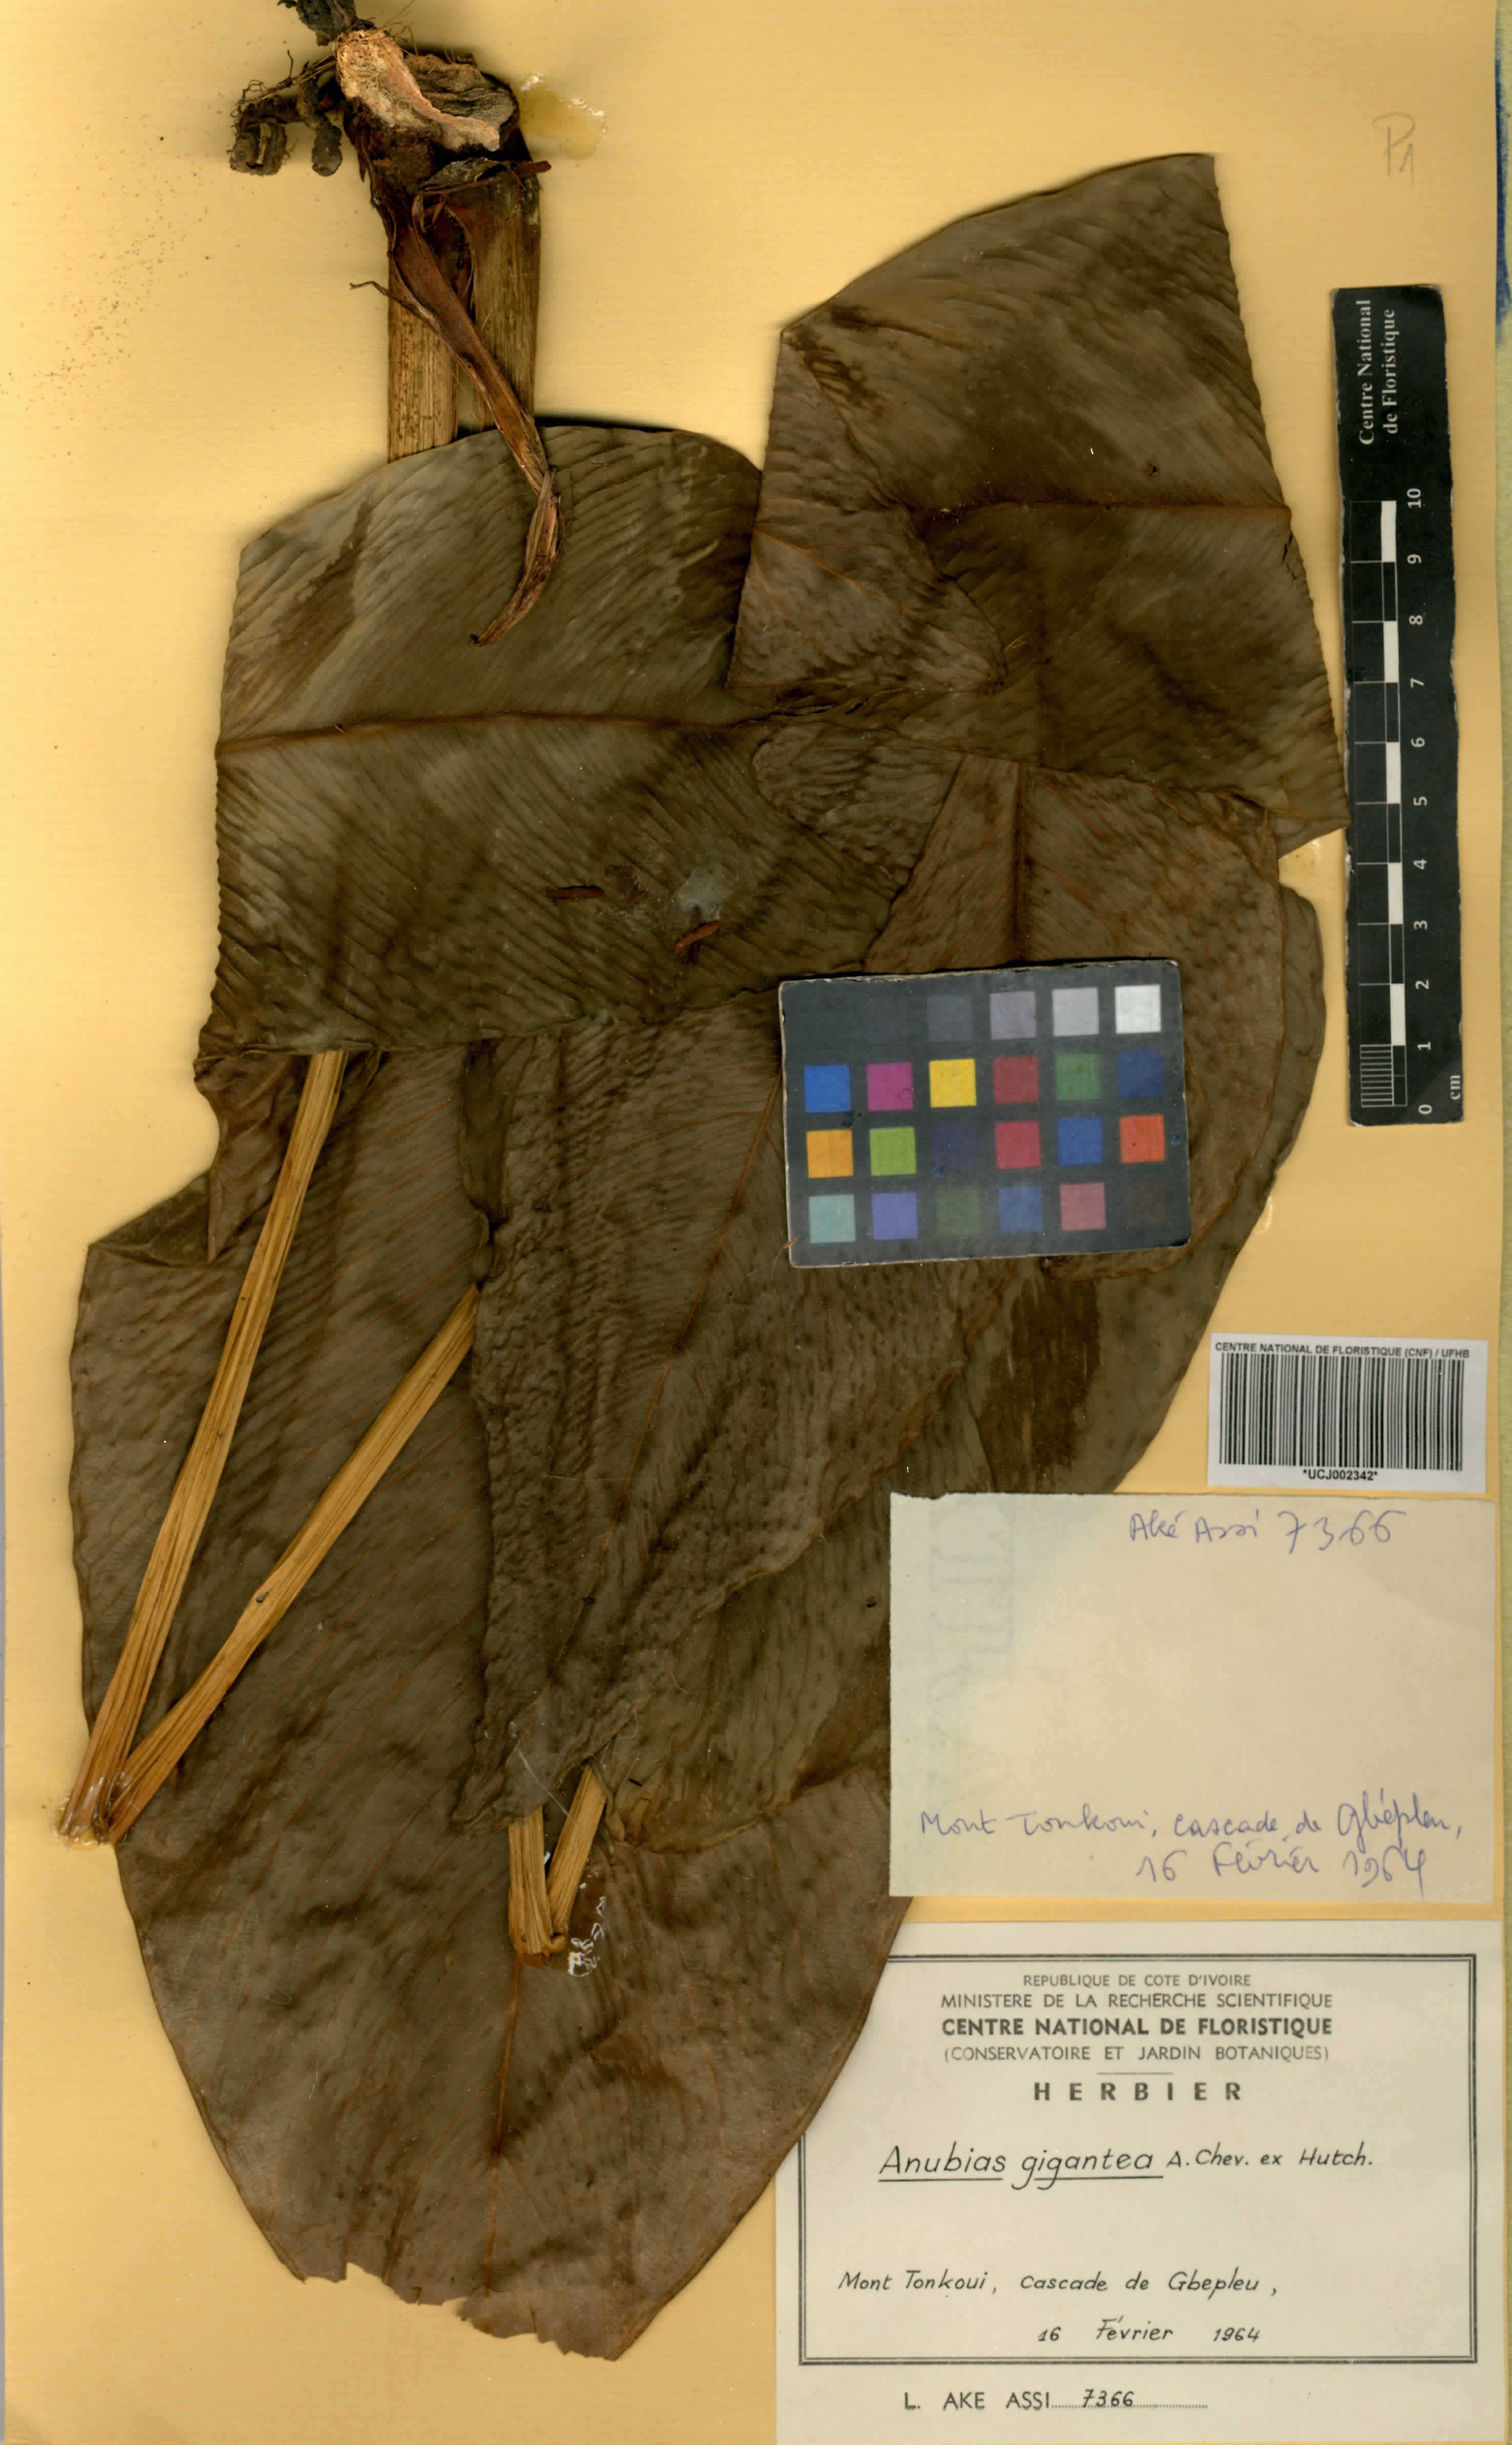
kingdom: Plantae
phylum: Tracheophyta
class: Liliopsida
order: Alismatales
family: Araceae
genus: Anubias
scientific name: Anubias gigantea
